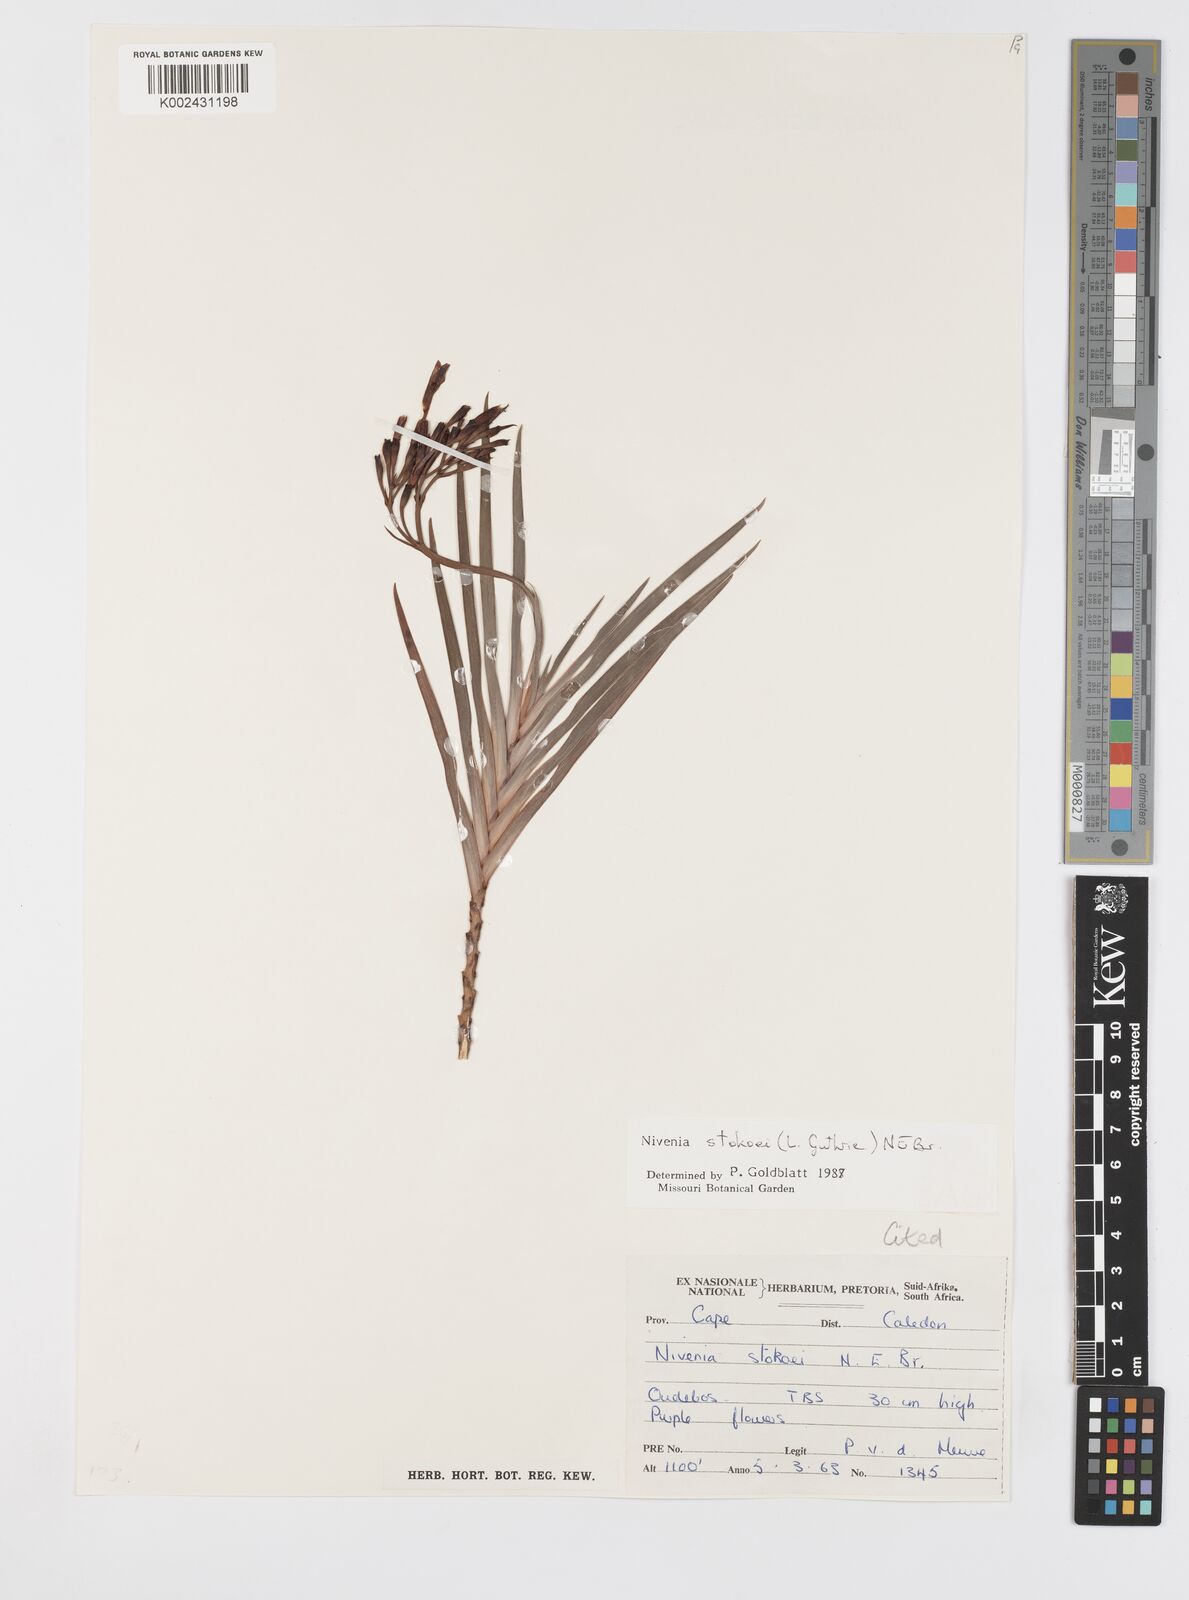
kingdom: Plantae
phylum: Tracheophyta
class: Liliopsida
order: Asparagales
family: Iridaceae
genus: Nivenia
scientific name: Nivenia stokoei
